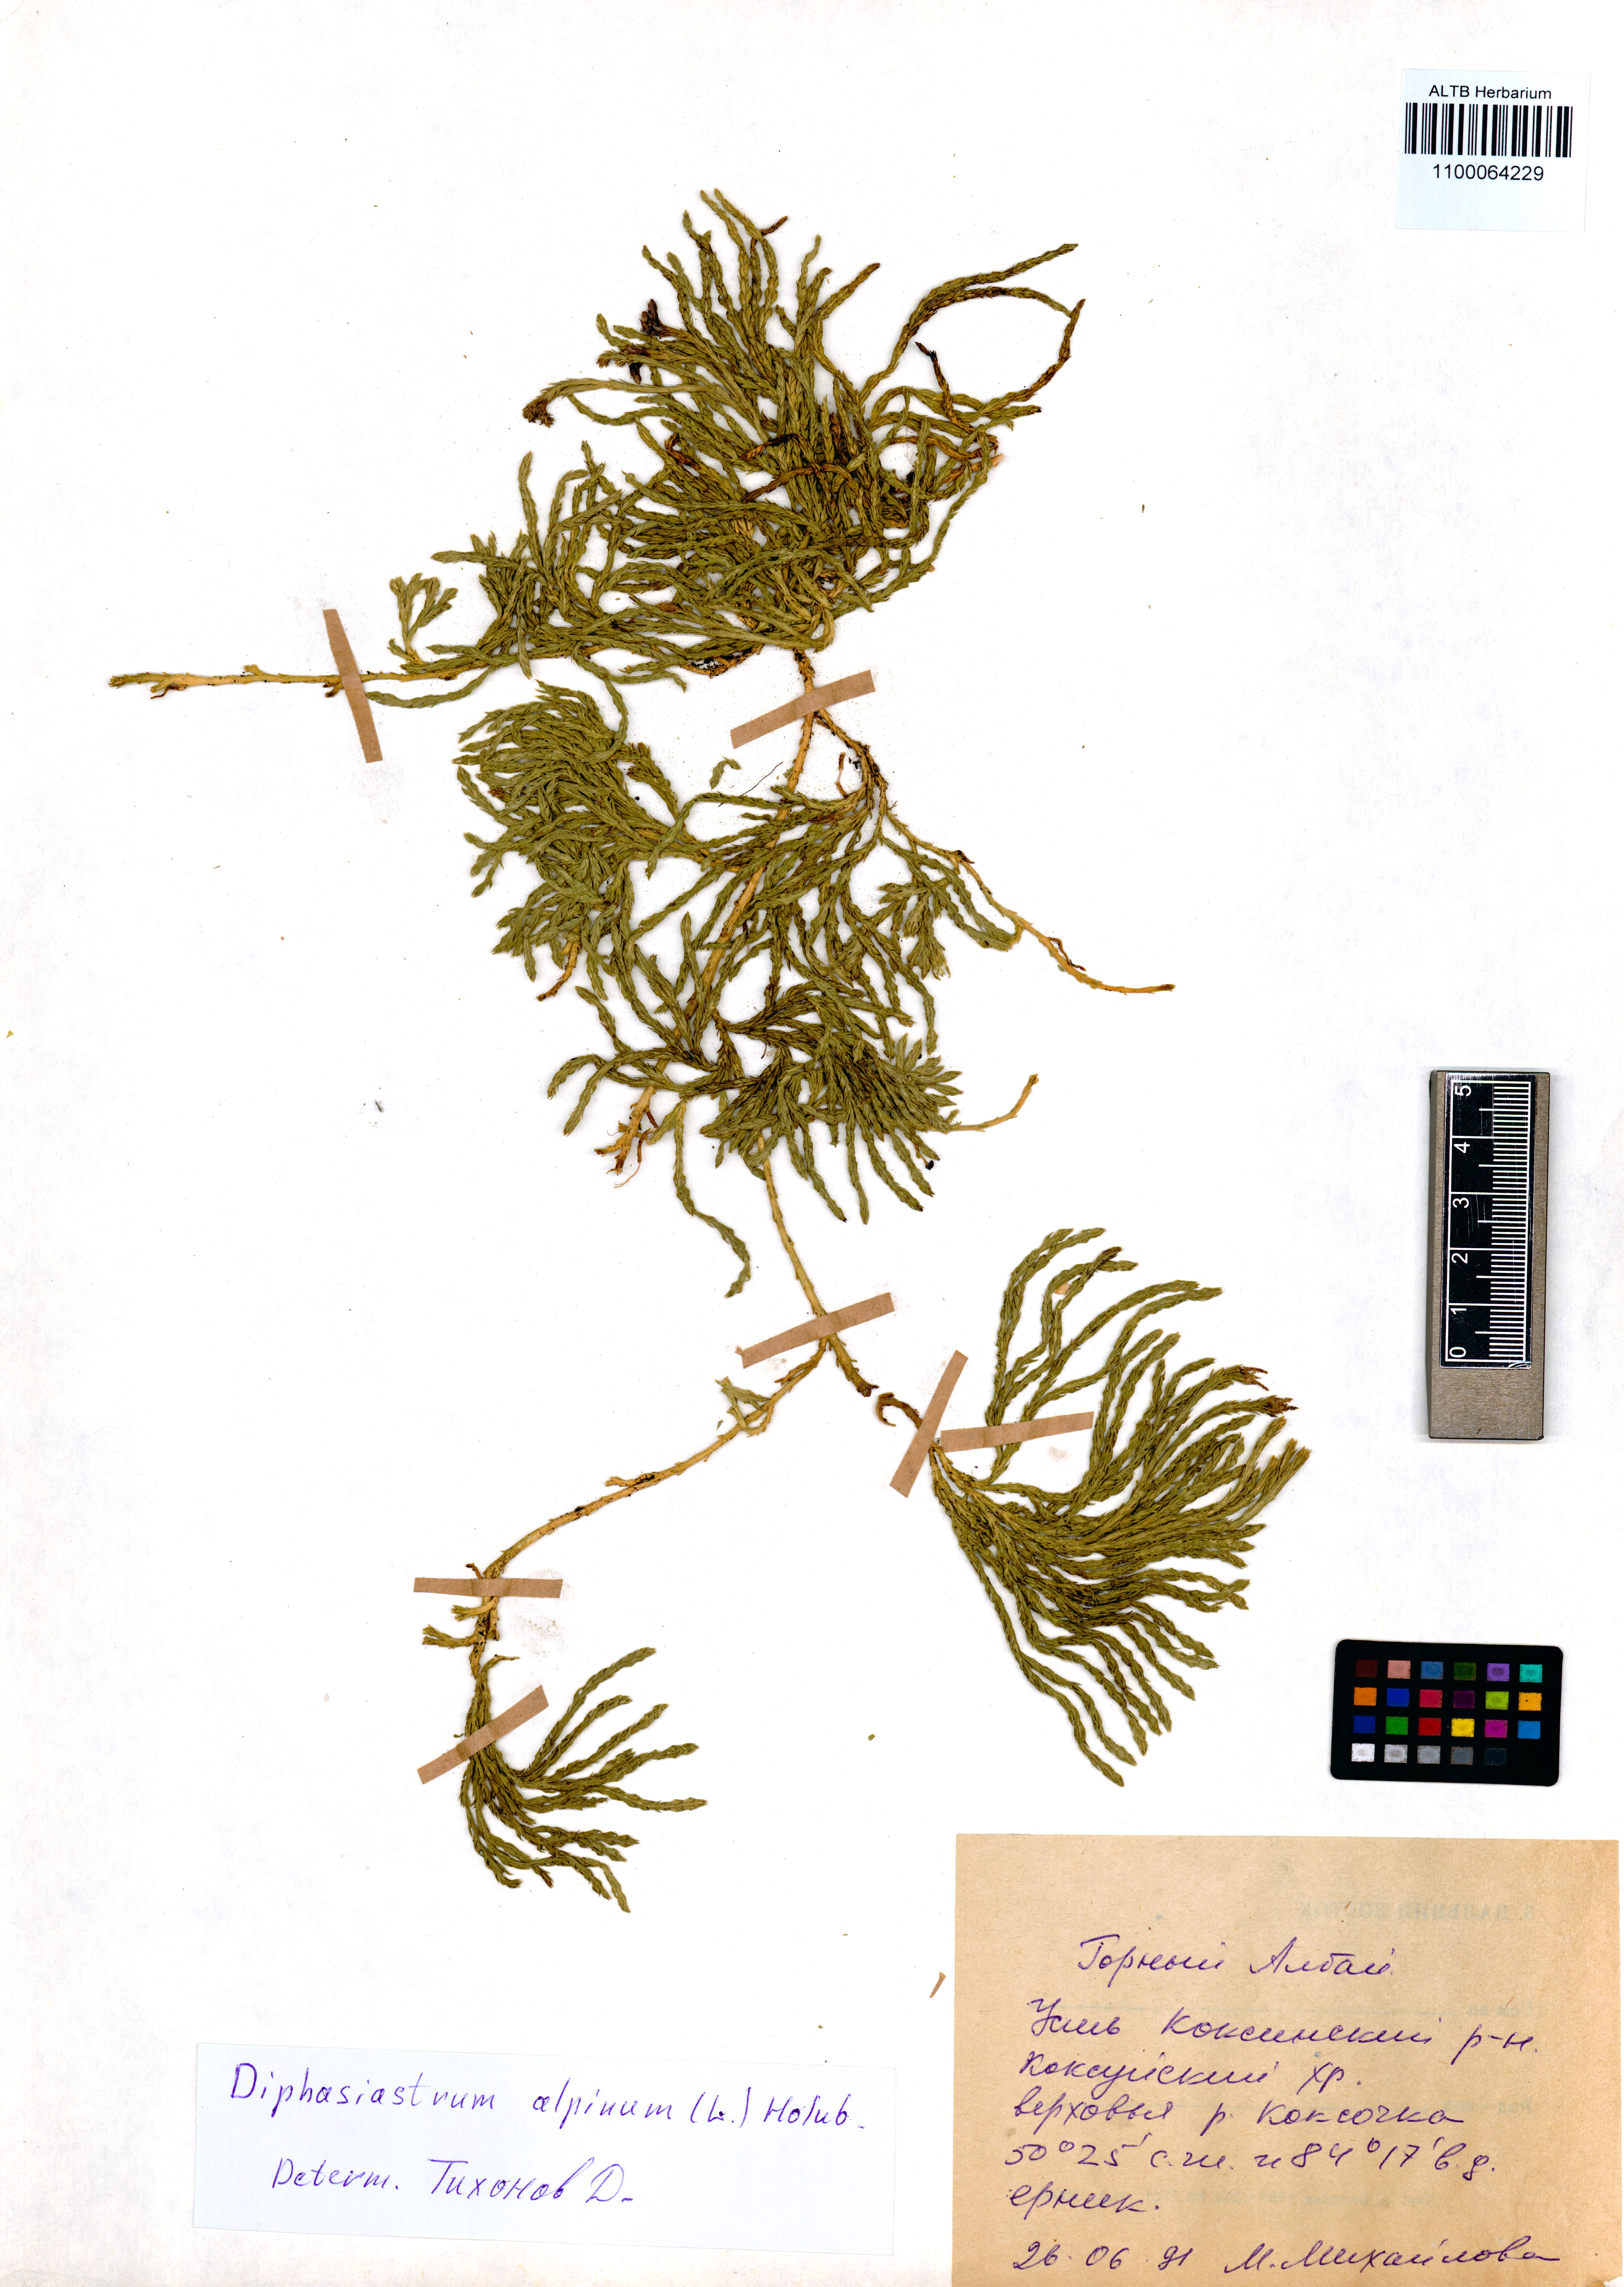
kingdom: Plantae
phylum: Tracheophyta
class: Lycopodiopsida
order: Lycopodiales
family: Lycopodiaceae
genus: Diphasiastrum
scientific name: Diphasiastrum alpinum
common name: Alpine clubmoss
